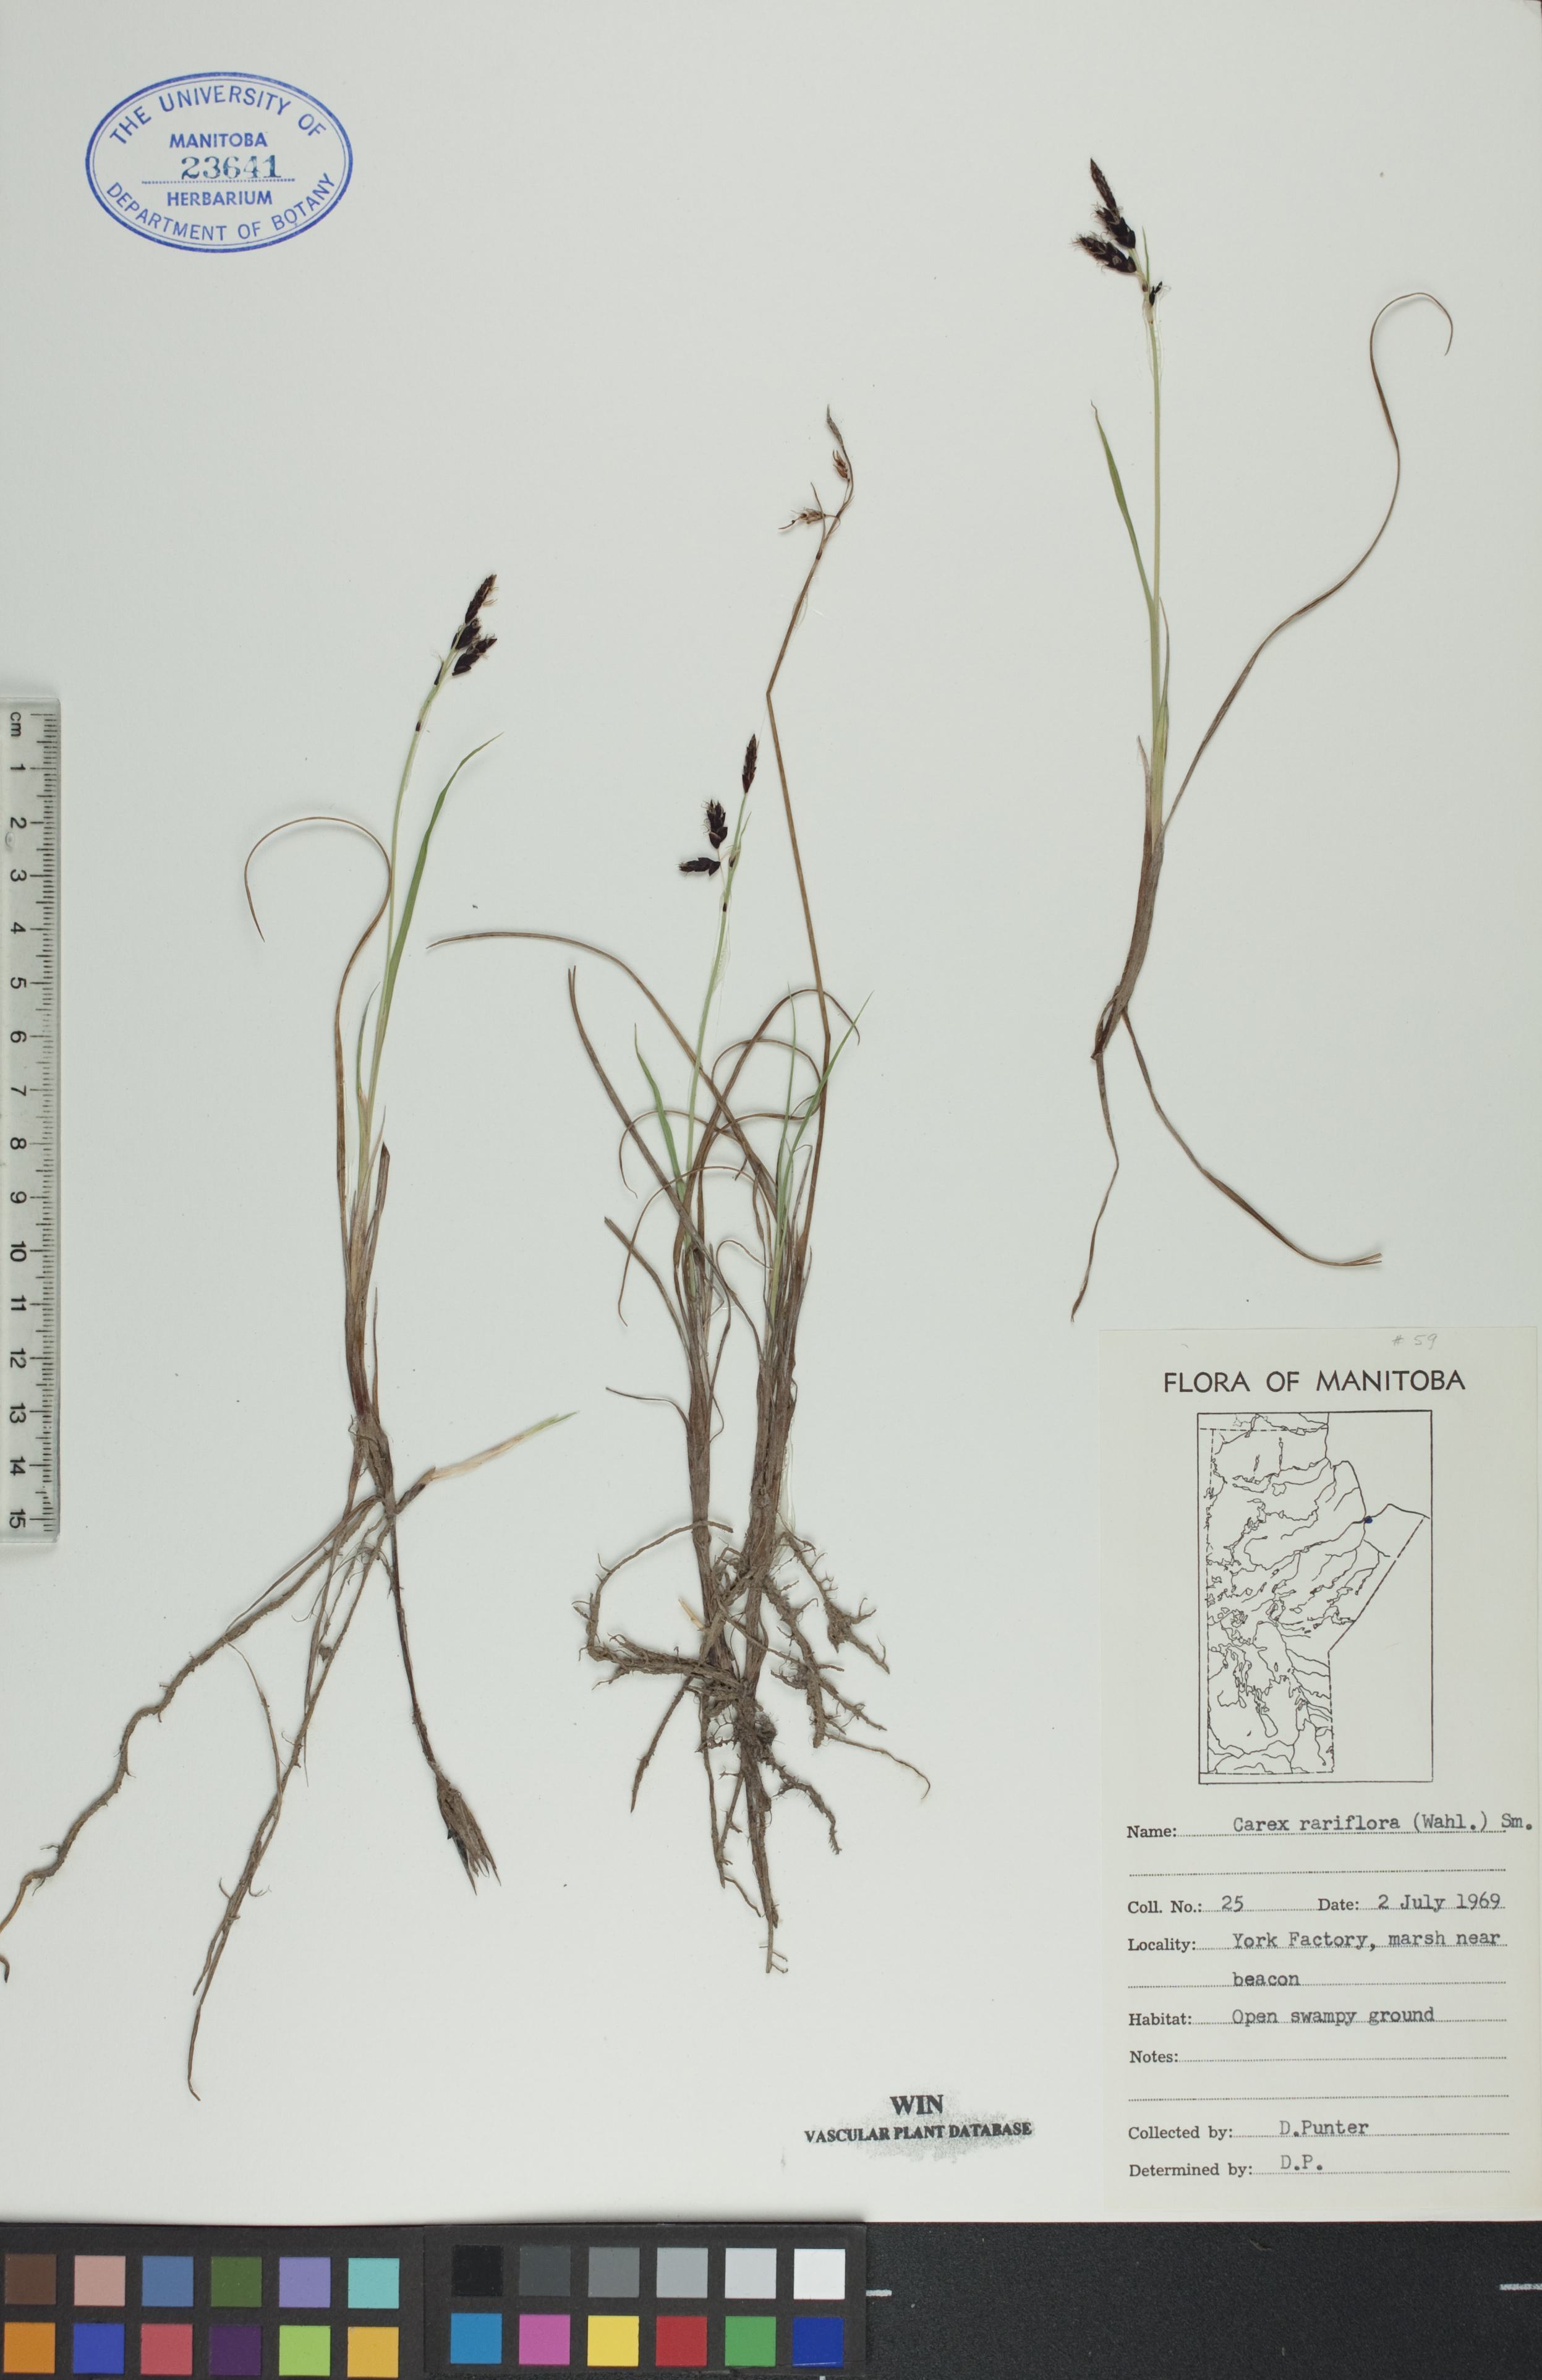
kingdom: Plantae
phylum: Tracheophyta
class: Liliopsida
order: Poales
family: Cyperaceae
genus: Carex
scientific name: Carex rariflora
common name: Loose-flowered alpine sedge
